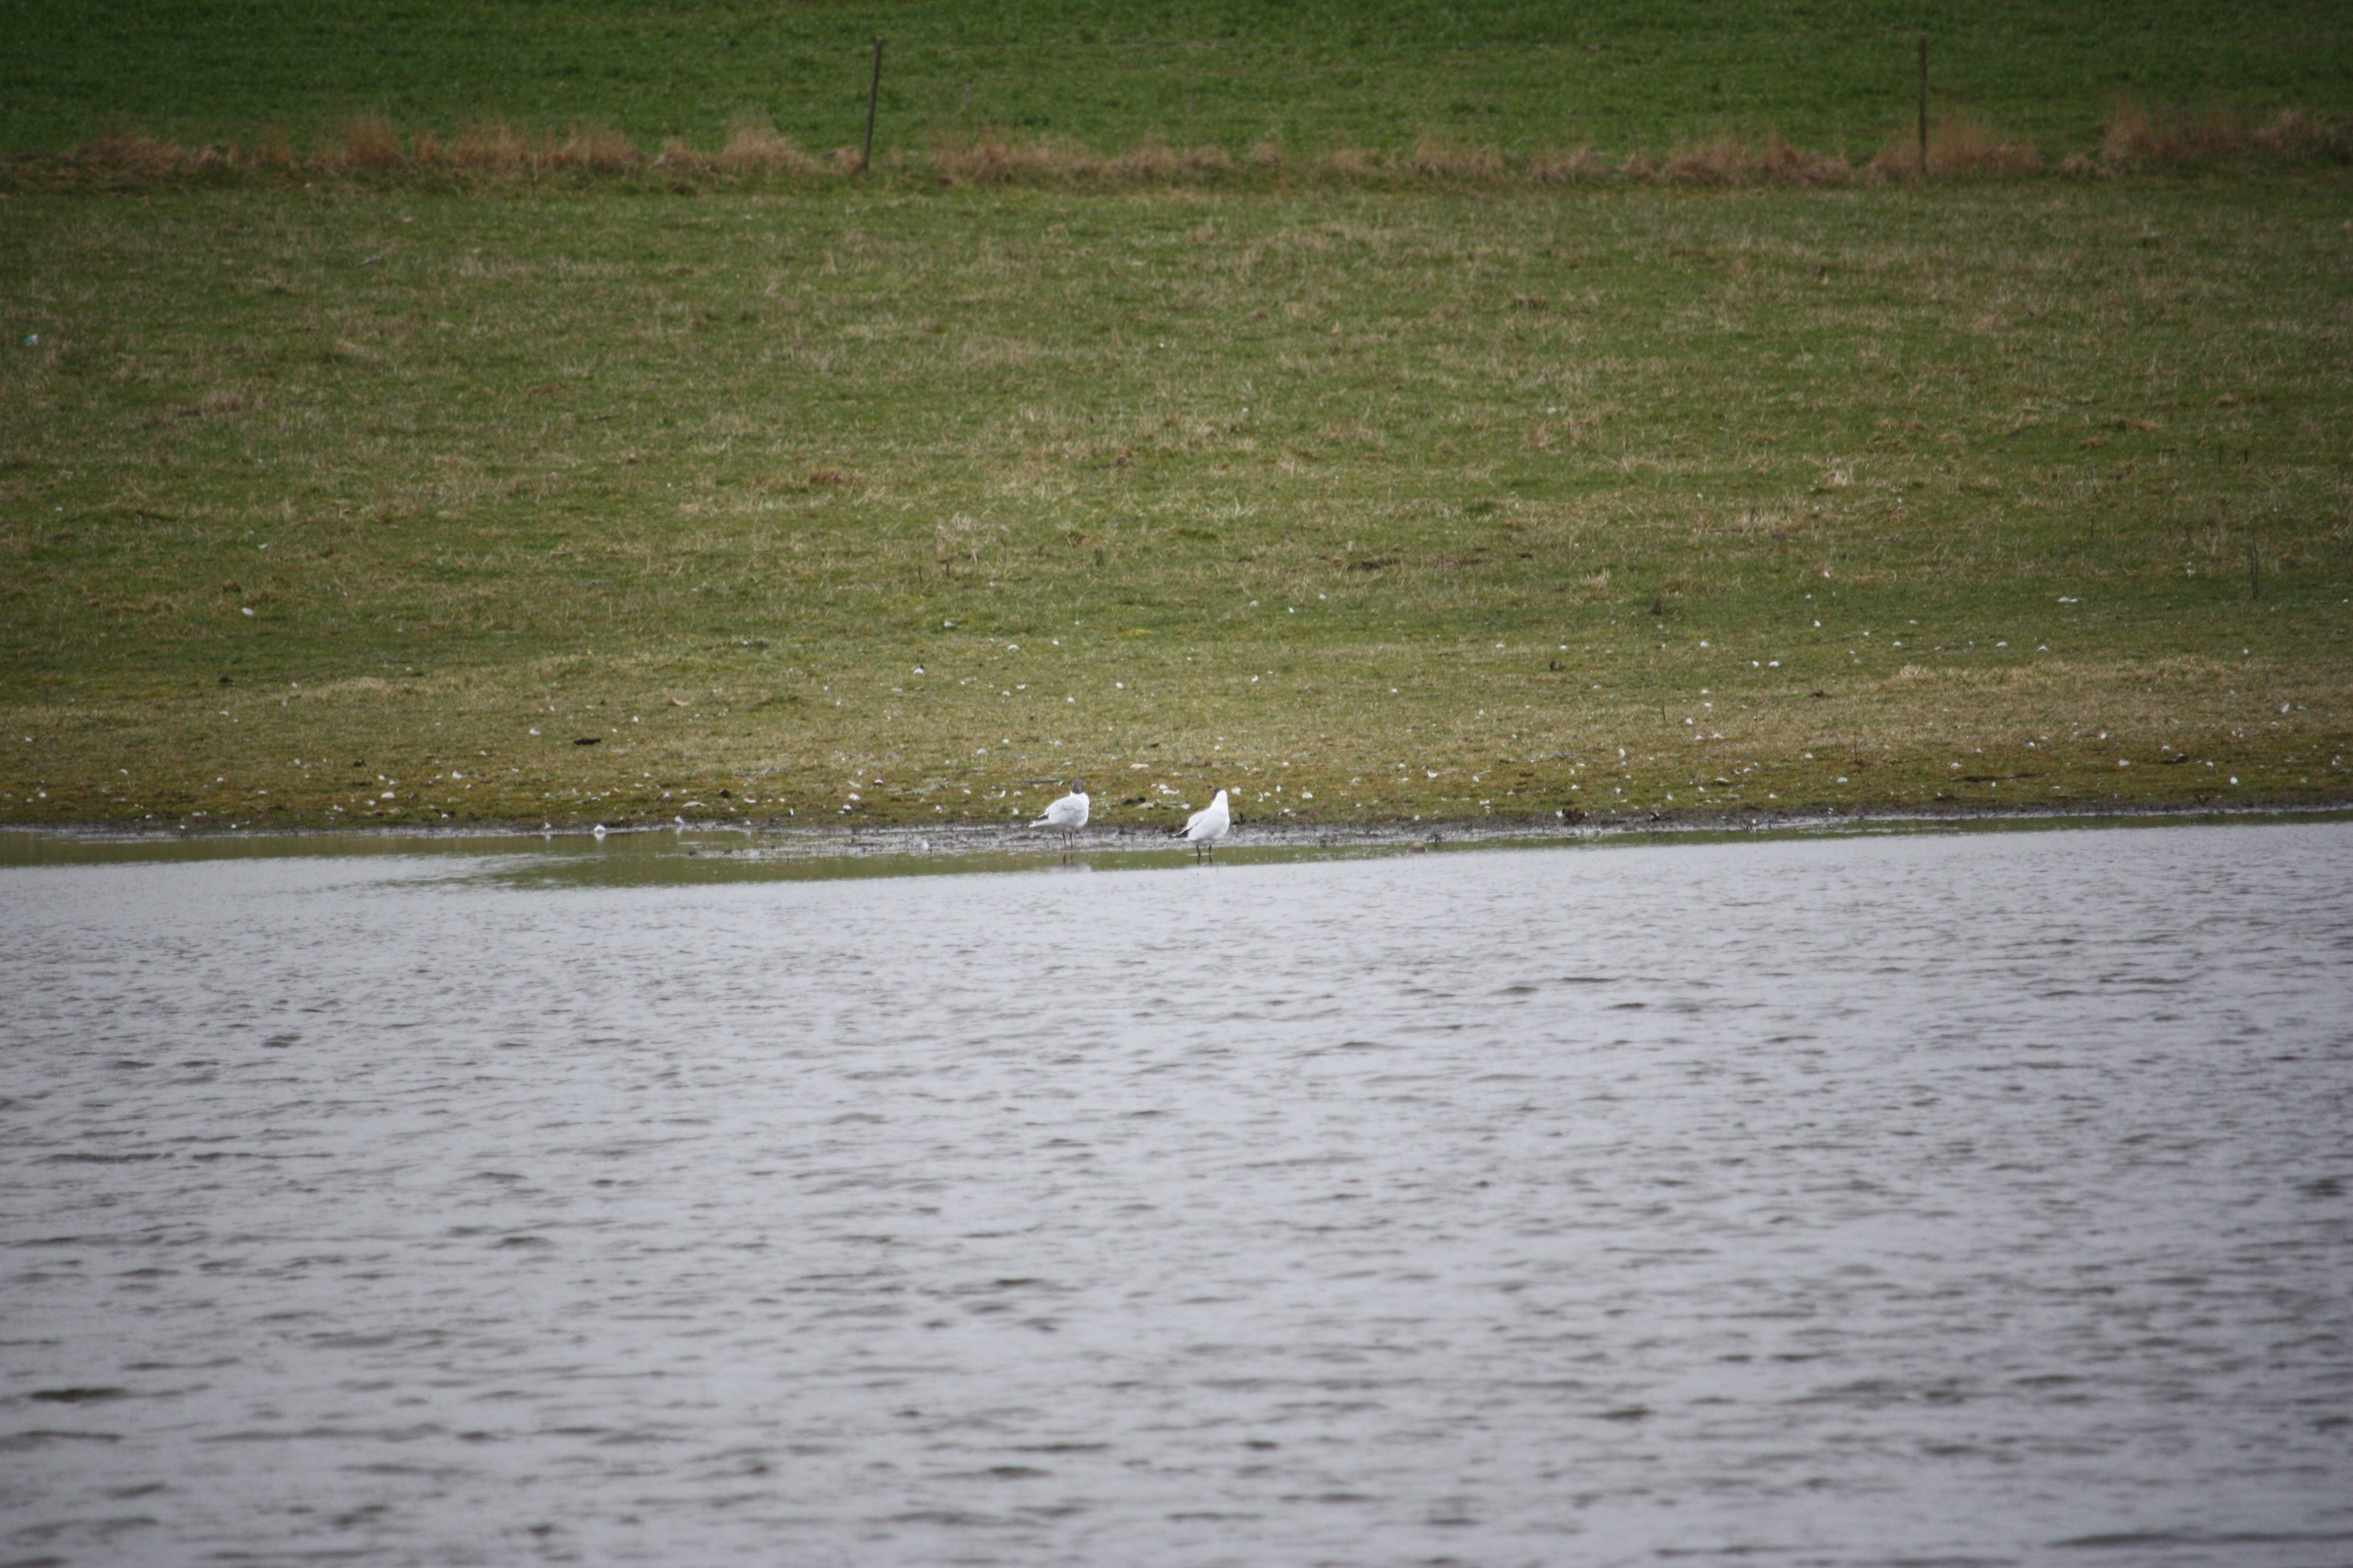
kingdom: Animalia
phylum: Chordata
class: Aves
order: Charadriiformes
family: Laridae
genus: Chroicocephalus
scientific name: Chroicocephalus ridibundus
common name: Hættemåge
